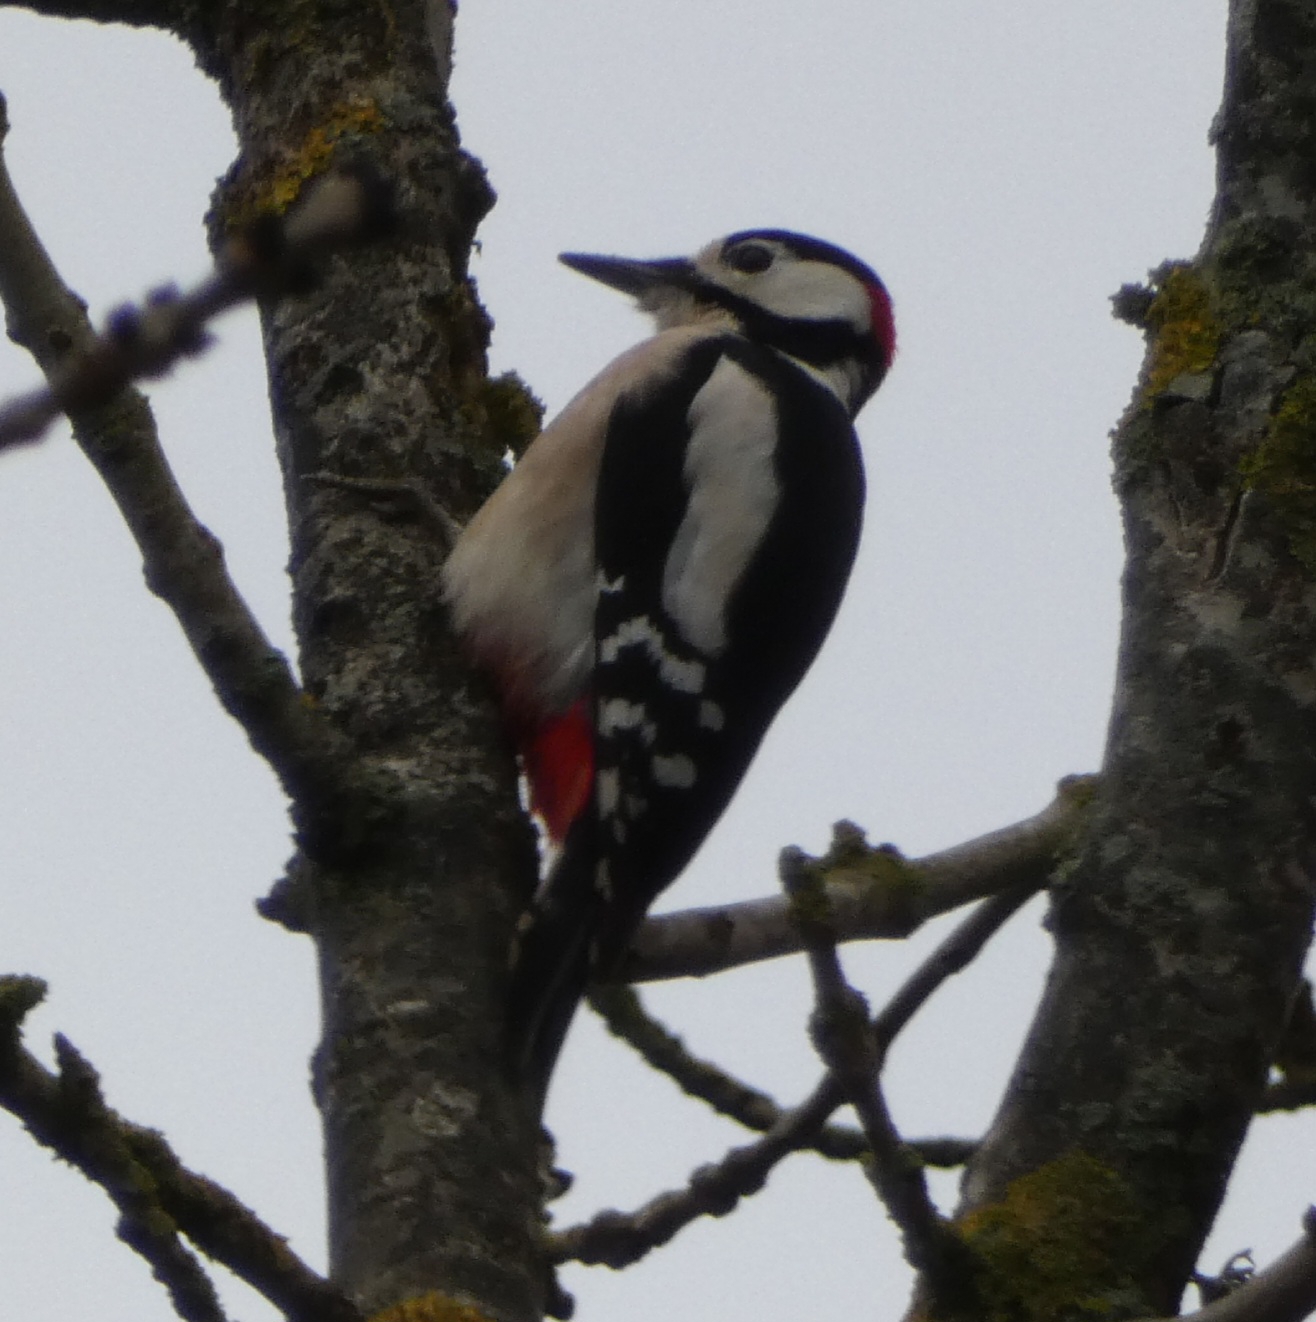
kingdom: Animalia
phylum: Chordata
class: Aves
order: Piciformes
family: Picidae
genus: Dendrocopos
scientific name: Dendrocopos major
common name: Stor flagspætte
